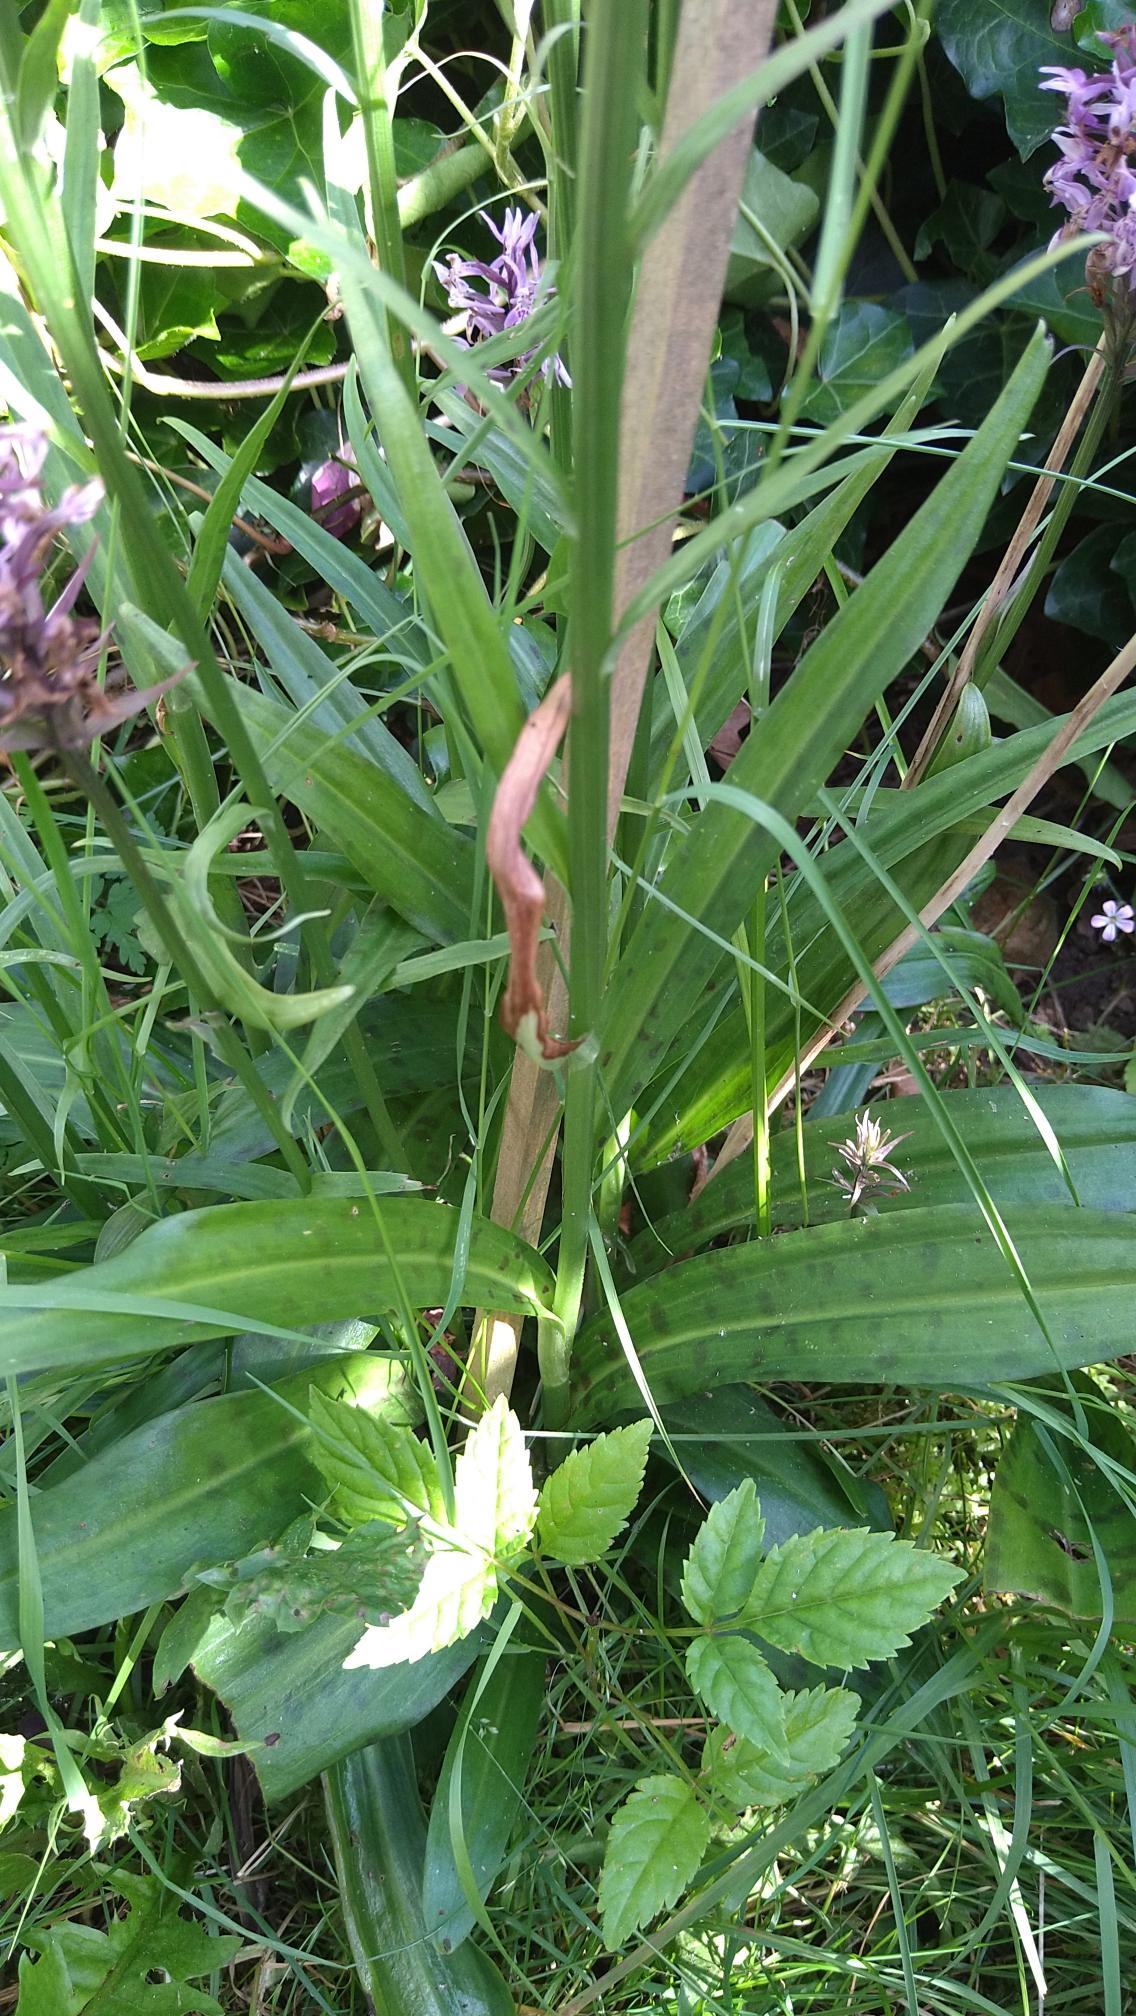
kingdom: Plantae
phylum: Tracheophyta
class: Liliopsida
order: Asparagales
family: Orchidaceae
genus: Dactylorhiza
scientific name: Dactylorhiza maculata
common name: Plettet gøgeurt
